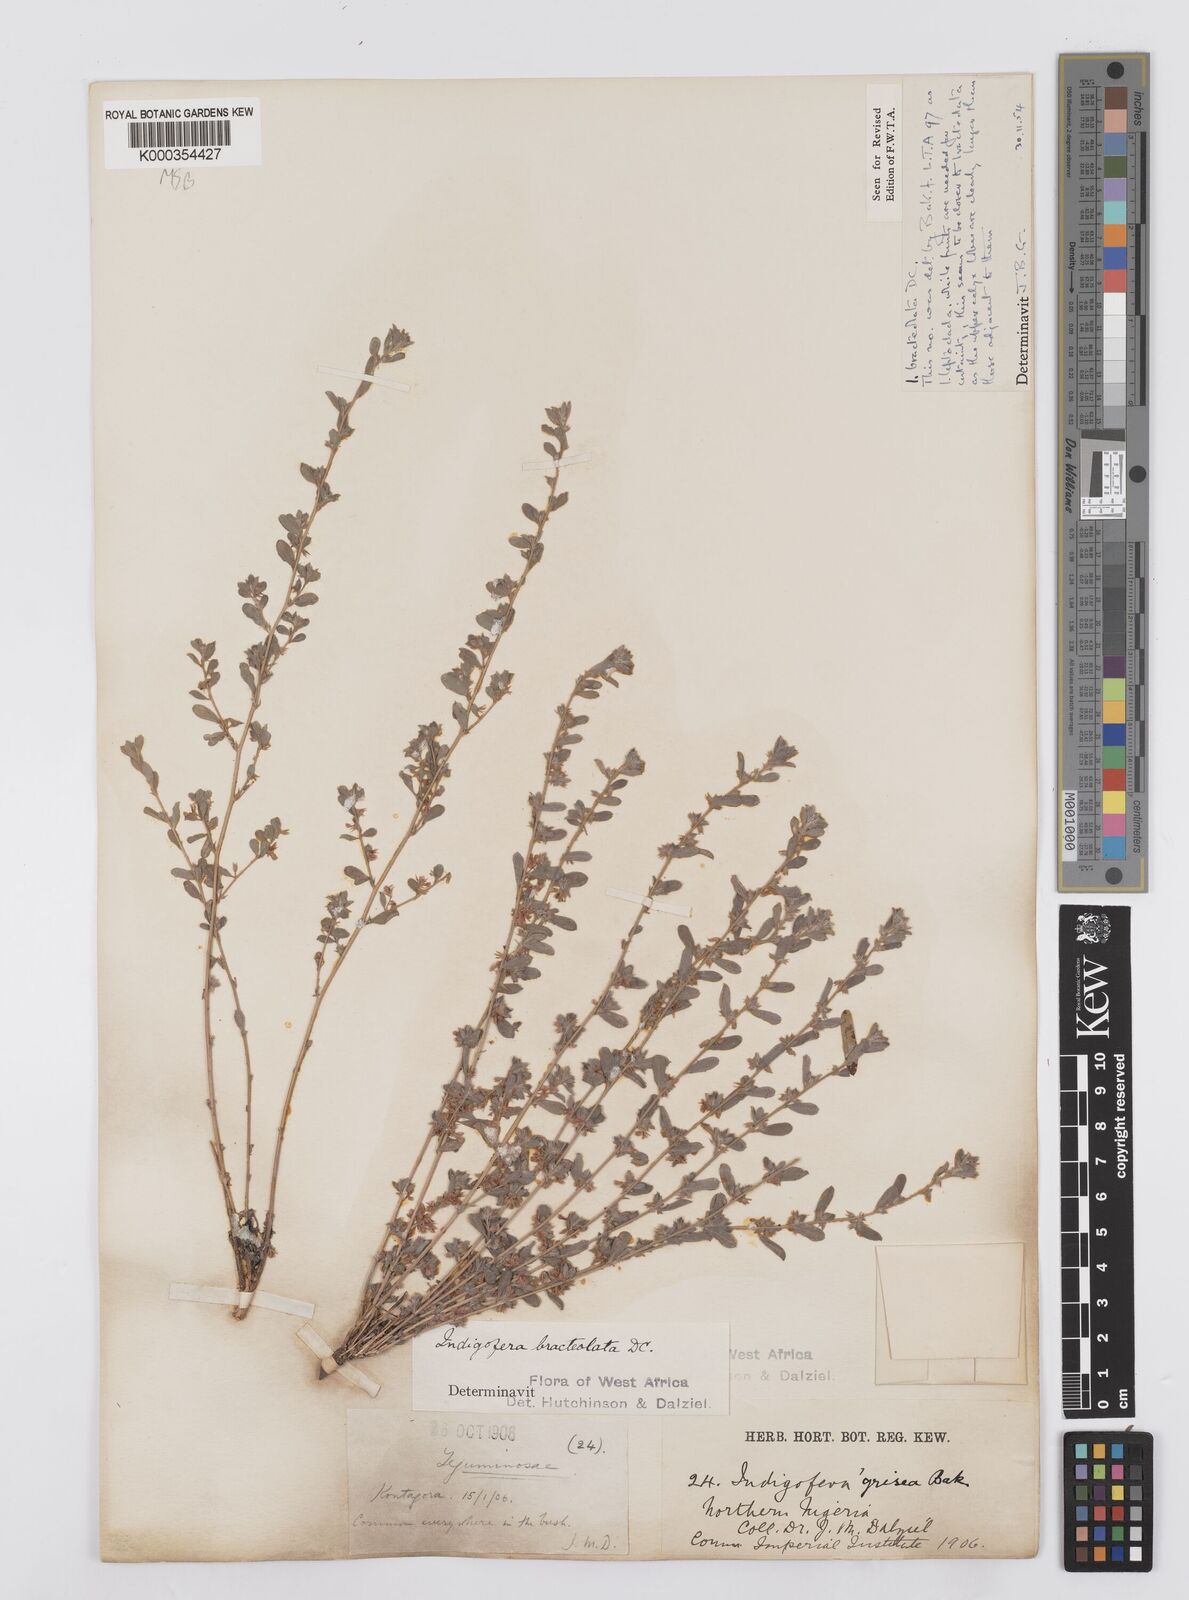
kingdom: Plantae
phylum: Tracheophyta
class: Magnoliopsida
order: Fabales
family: Fabaceae
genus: Indigofera
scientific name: Indigofera bracteolata
